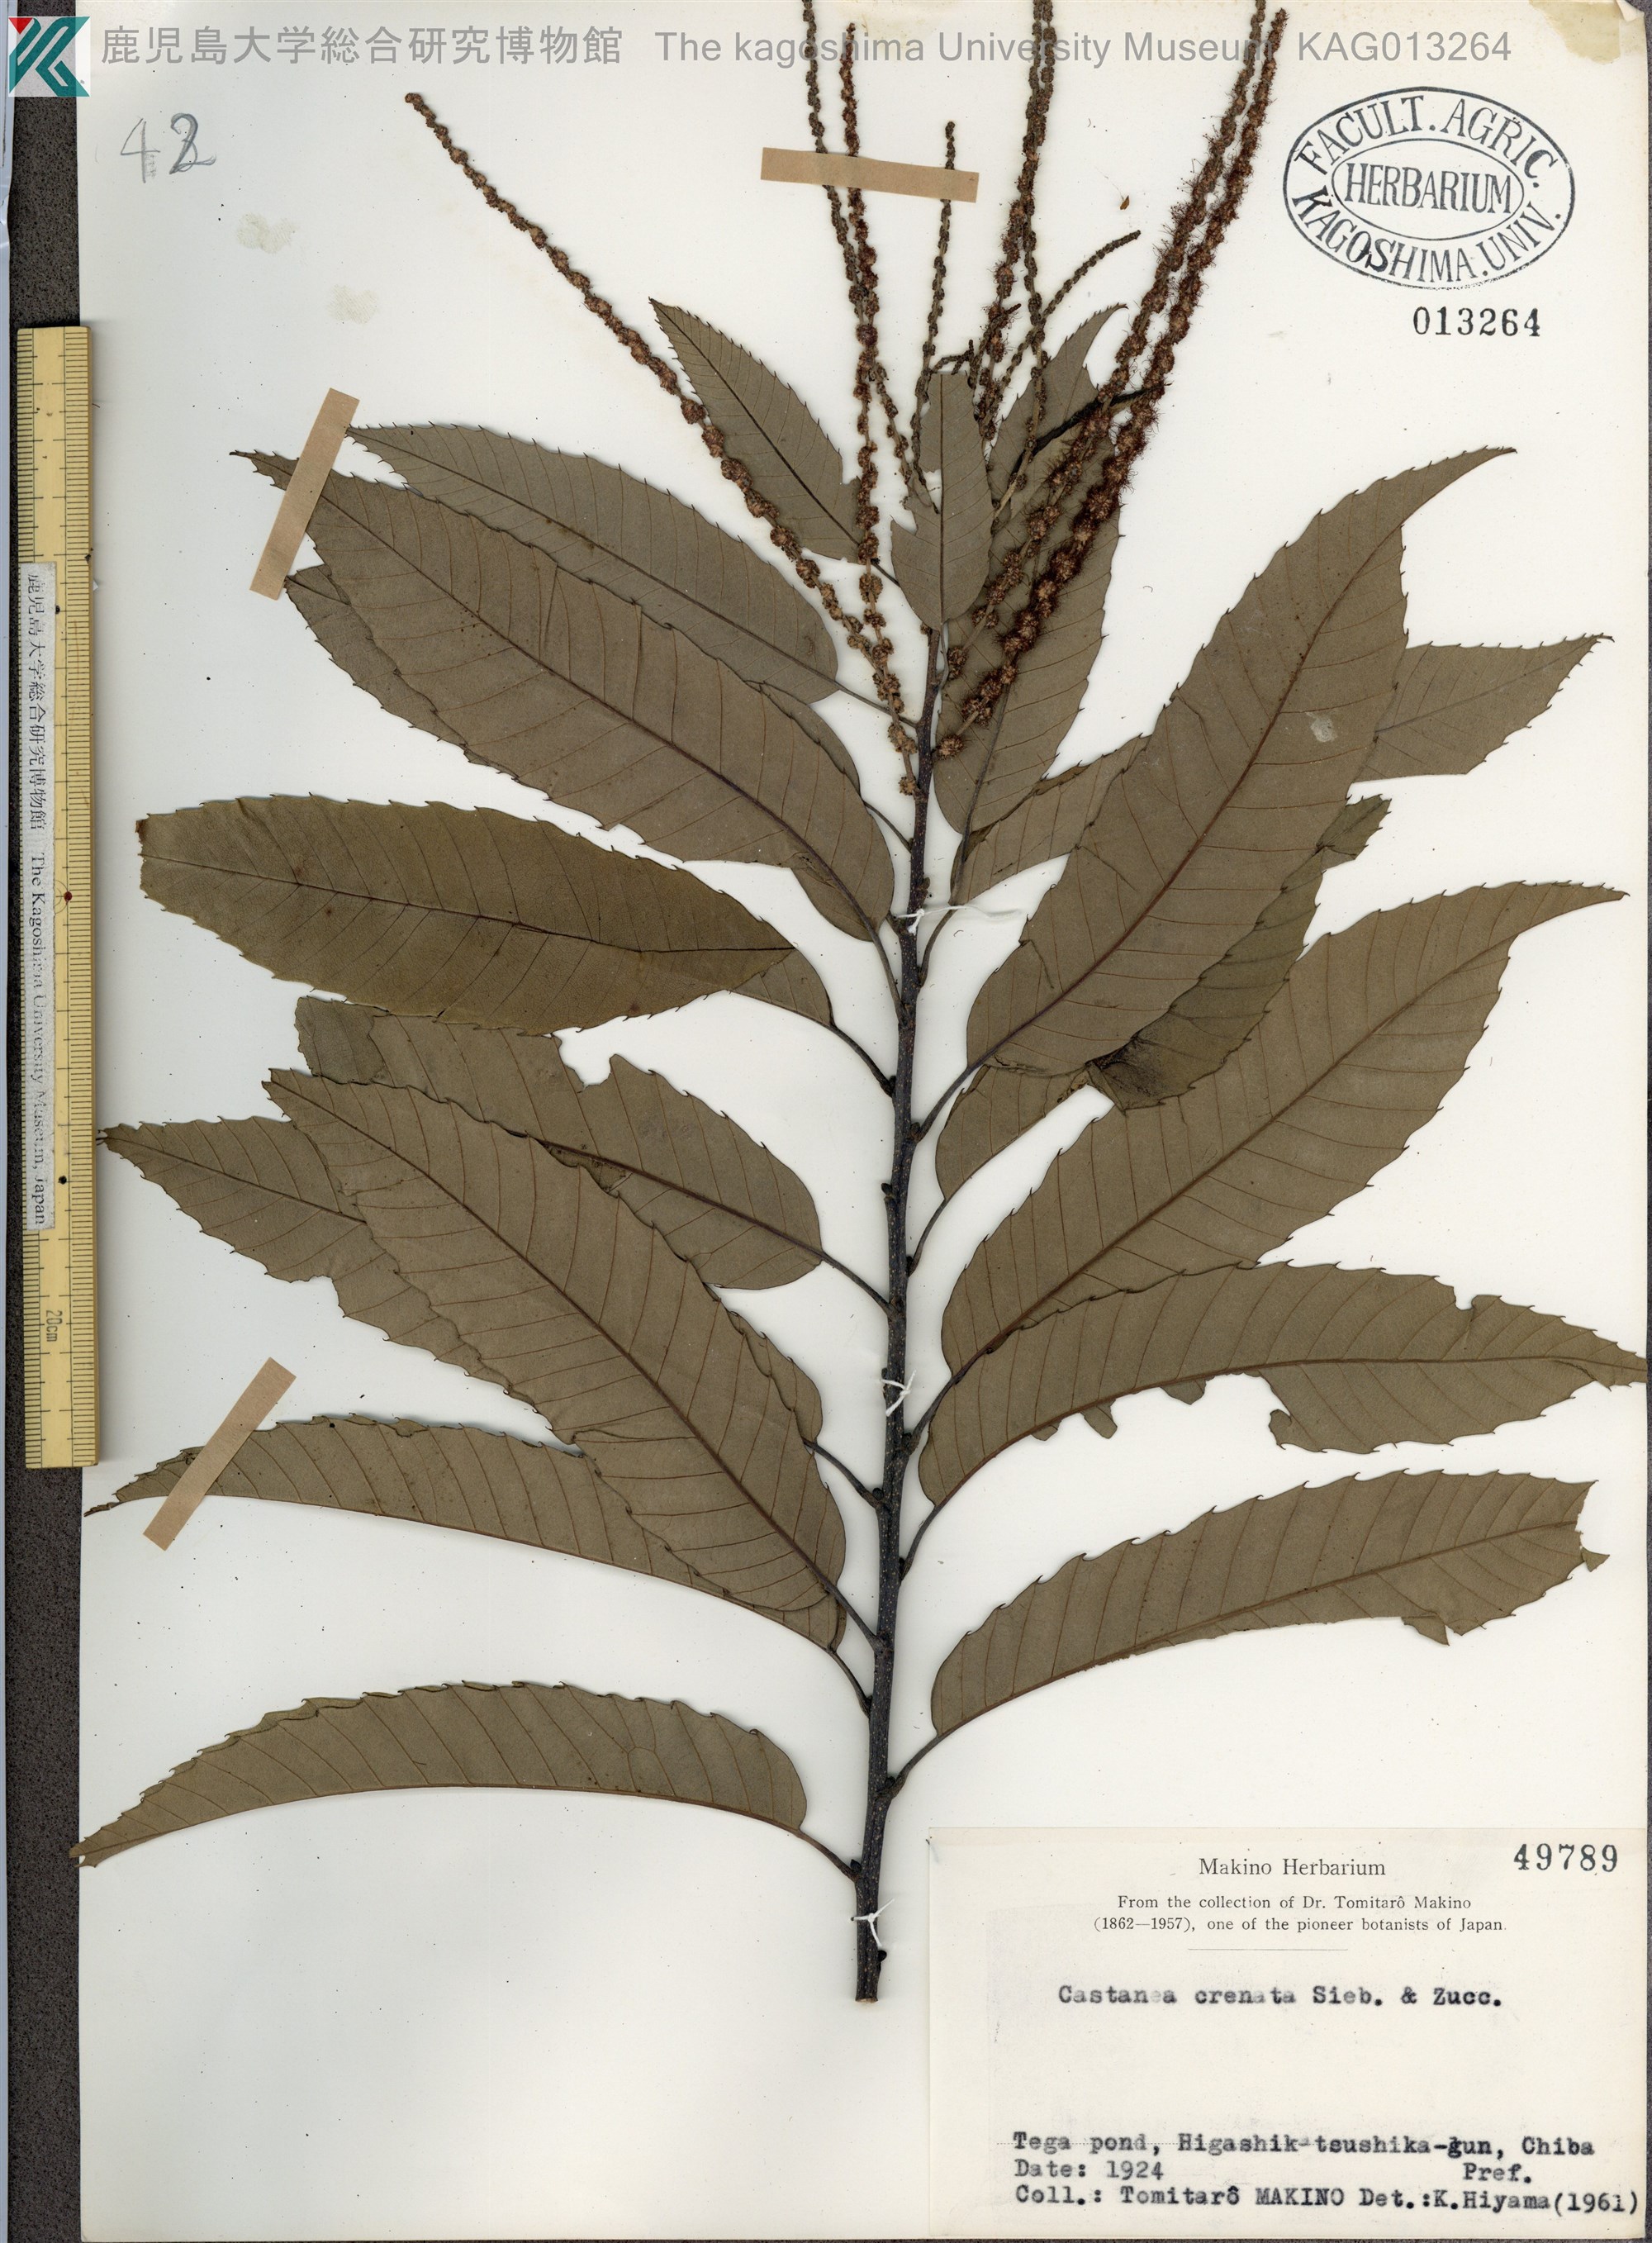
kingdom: Plantae
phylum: Tracheophyta
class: Magnoliopsida
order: Fagales
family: Fagaceae
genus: Castanea
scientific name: Castanea crenata
